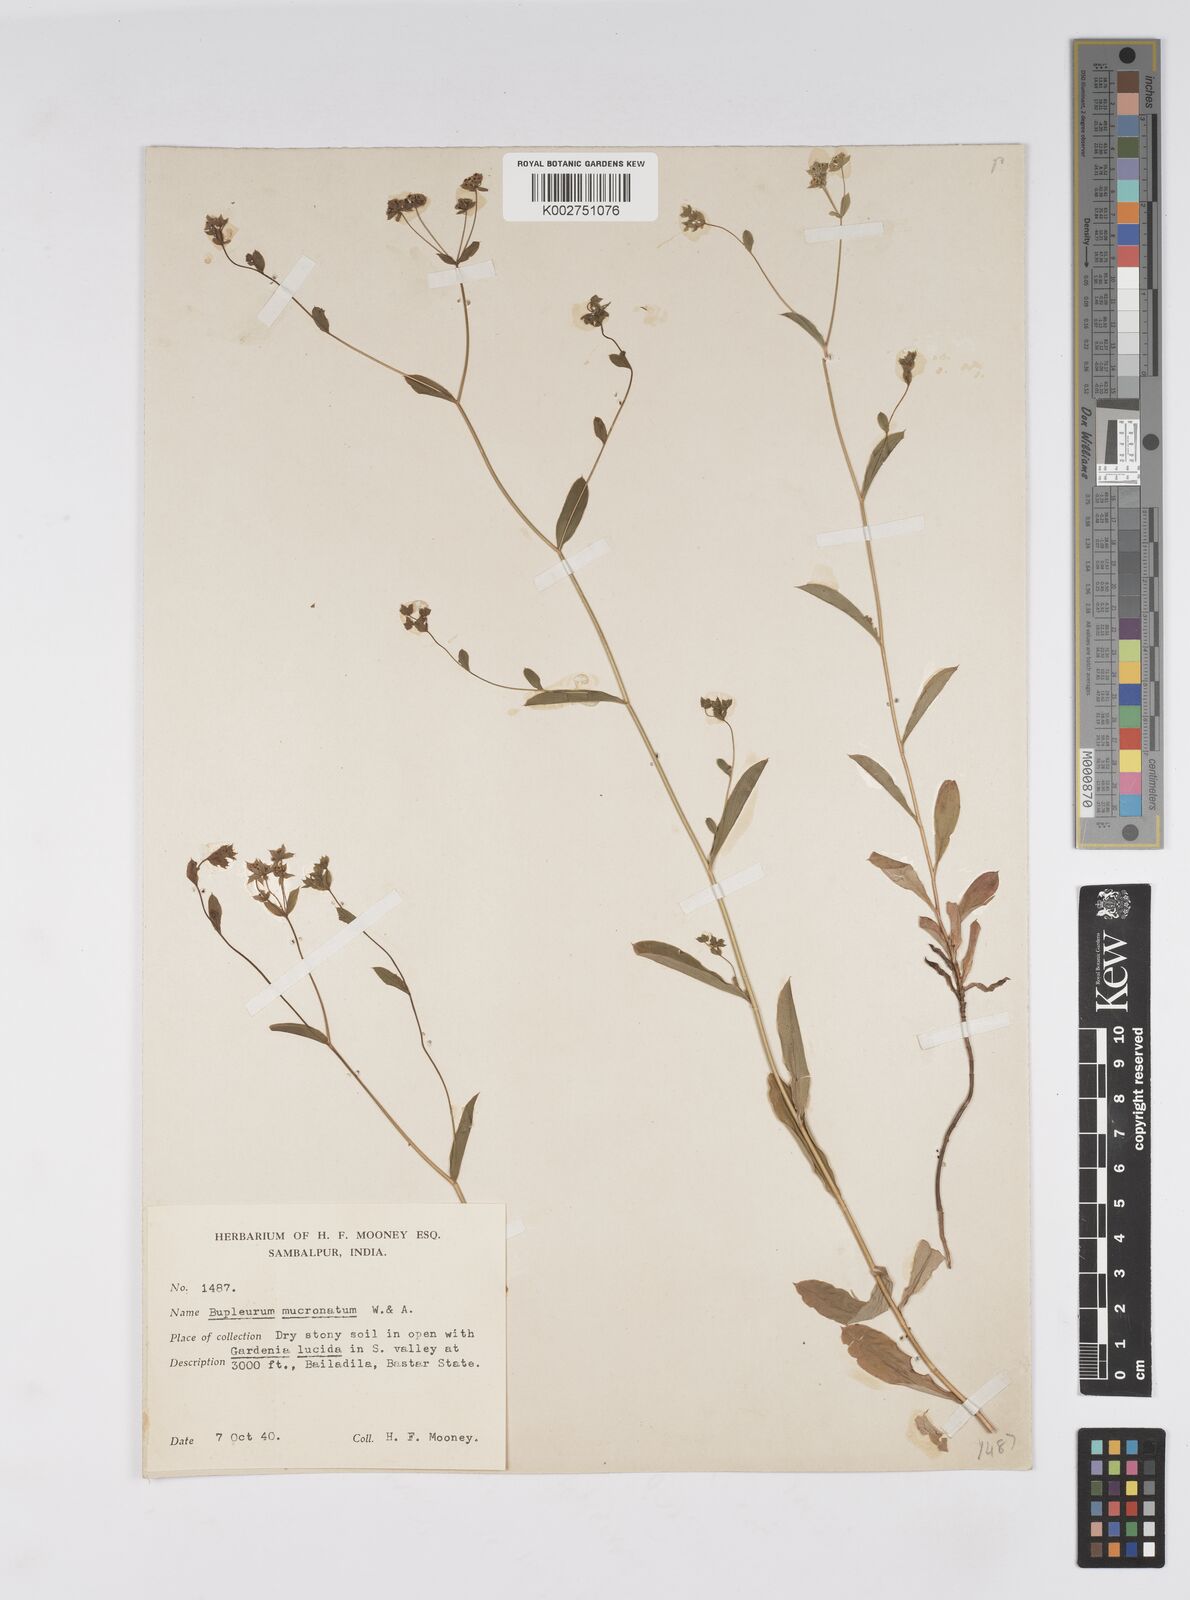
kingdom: Plantae
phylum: Tracheophyta
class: Magnoliopsida
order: Apiales
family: Apiaceae
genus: Bupleurum
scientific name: Bupleurum ramosissimum
